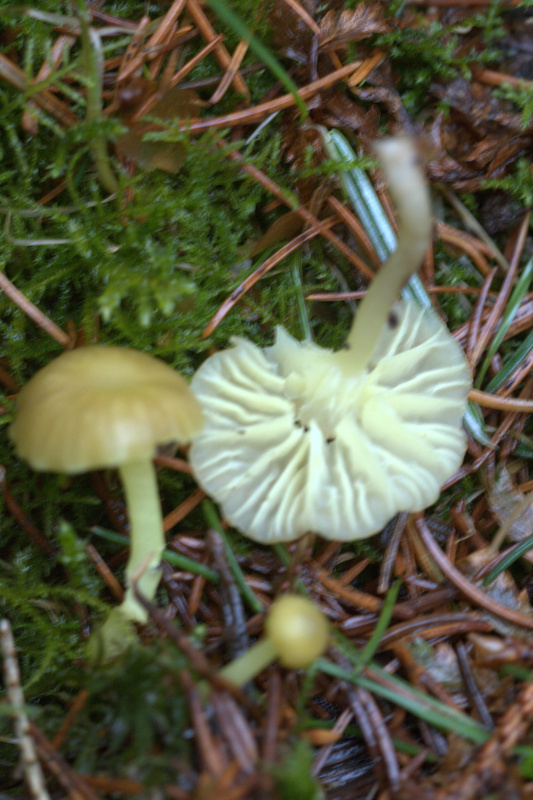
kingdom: Fungi
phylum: Basidiomycota
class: Agaricomycetes
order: Agaricales
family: Hygrophoraceae
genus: Chrysomphalina
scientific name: Chrysomphalina grossula
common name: stød-gyldenblad
